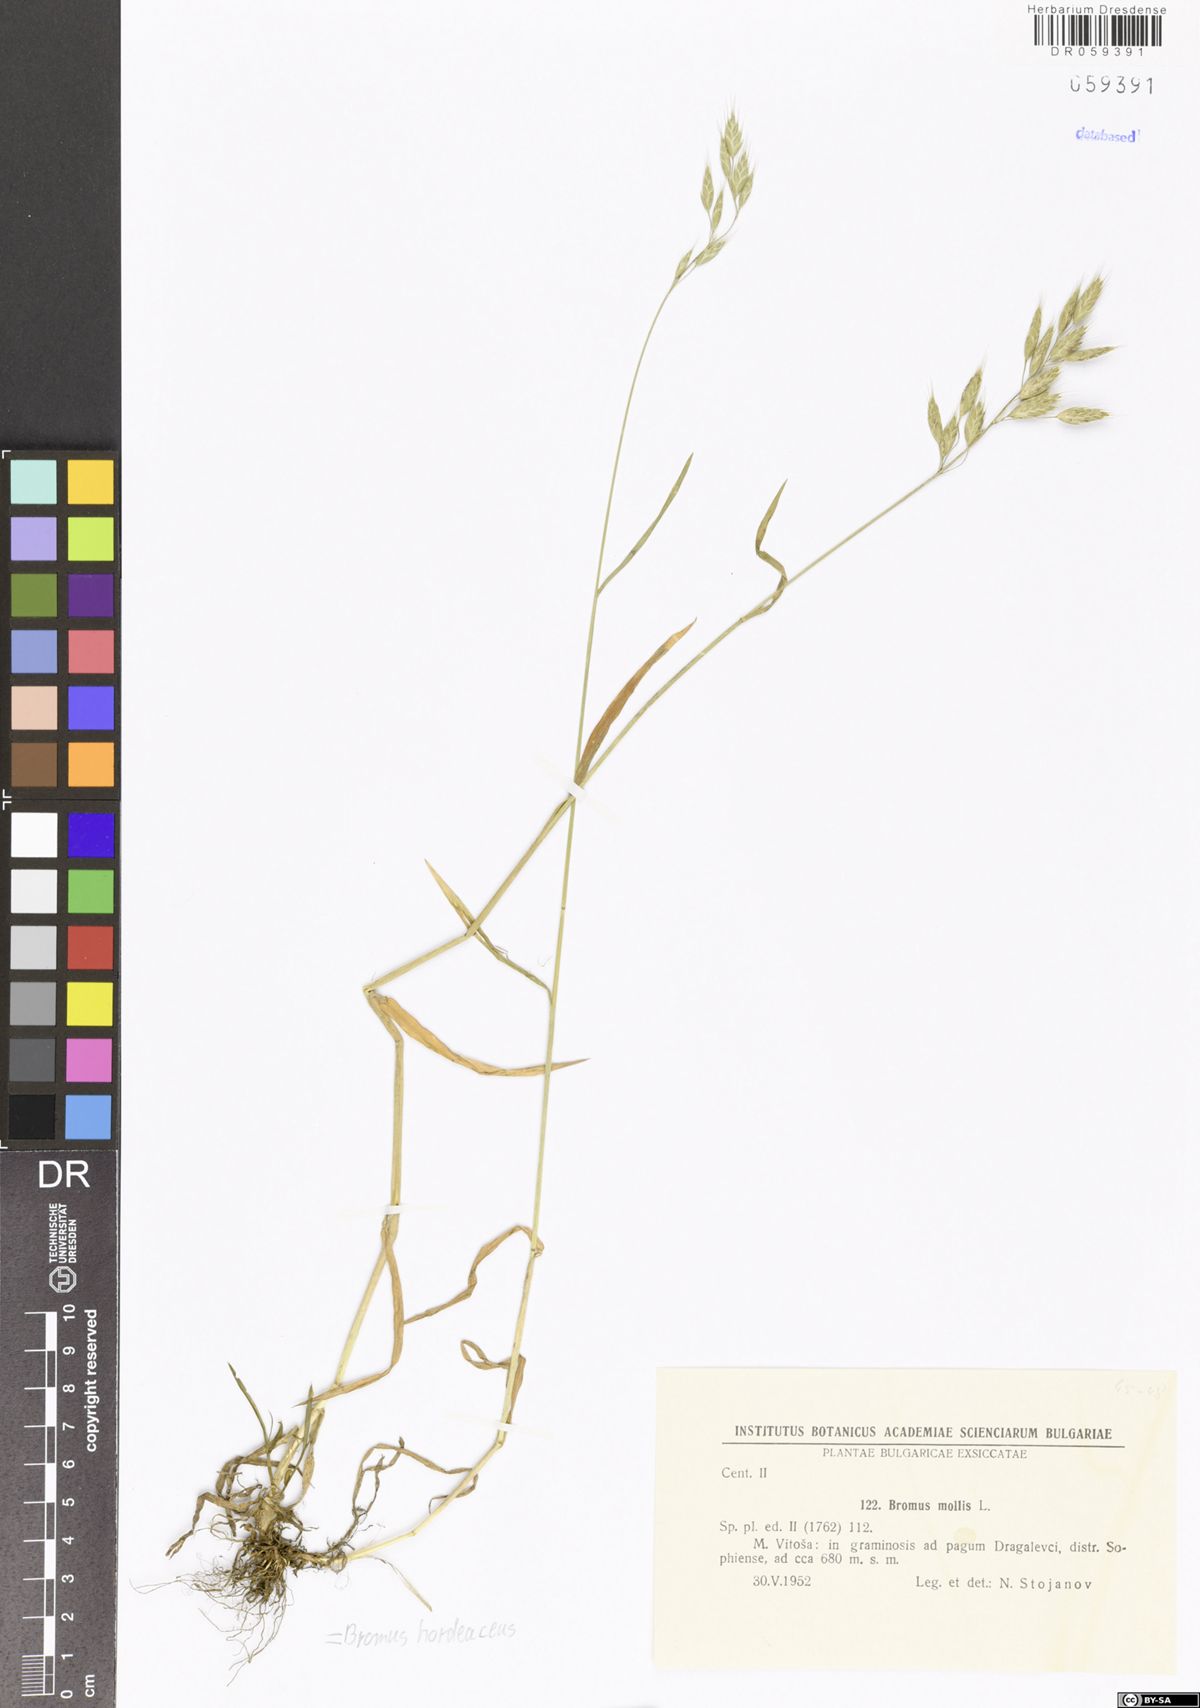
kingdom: Plantae
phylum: Tracheophyta
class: Liliopsida
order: Poales
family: Poaceae
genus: Bromus
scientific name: Bromus hordeaceus
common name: Soft brome
